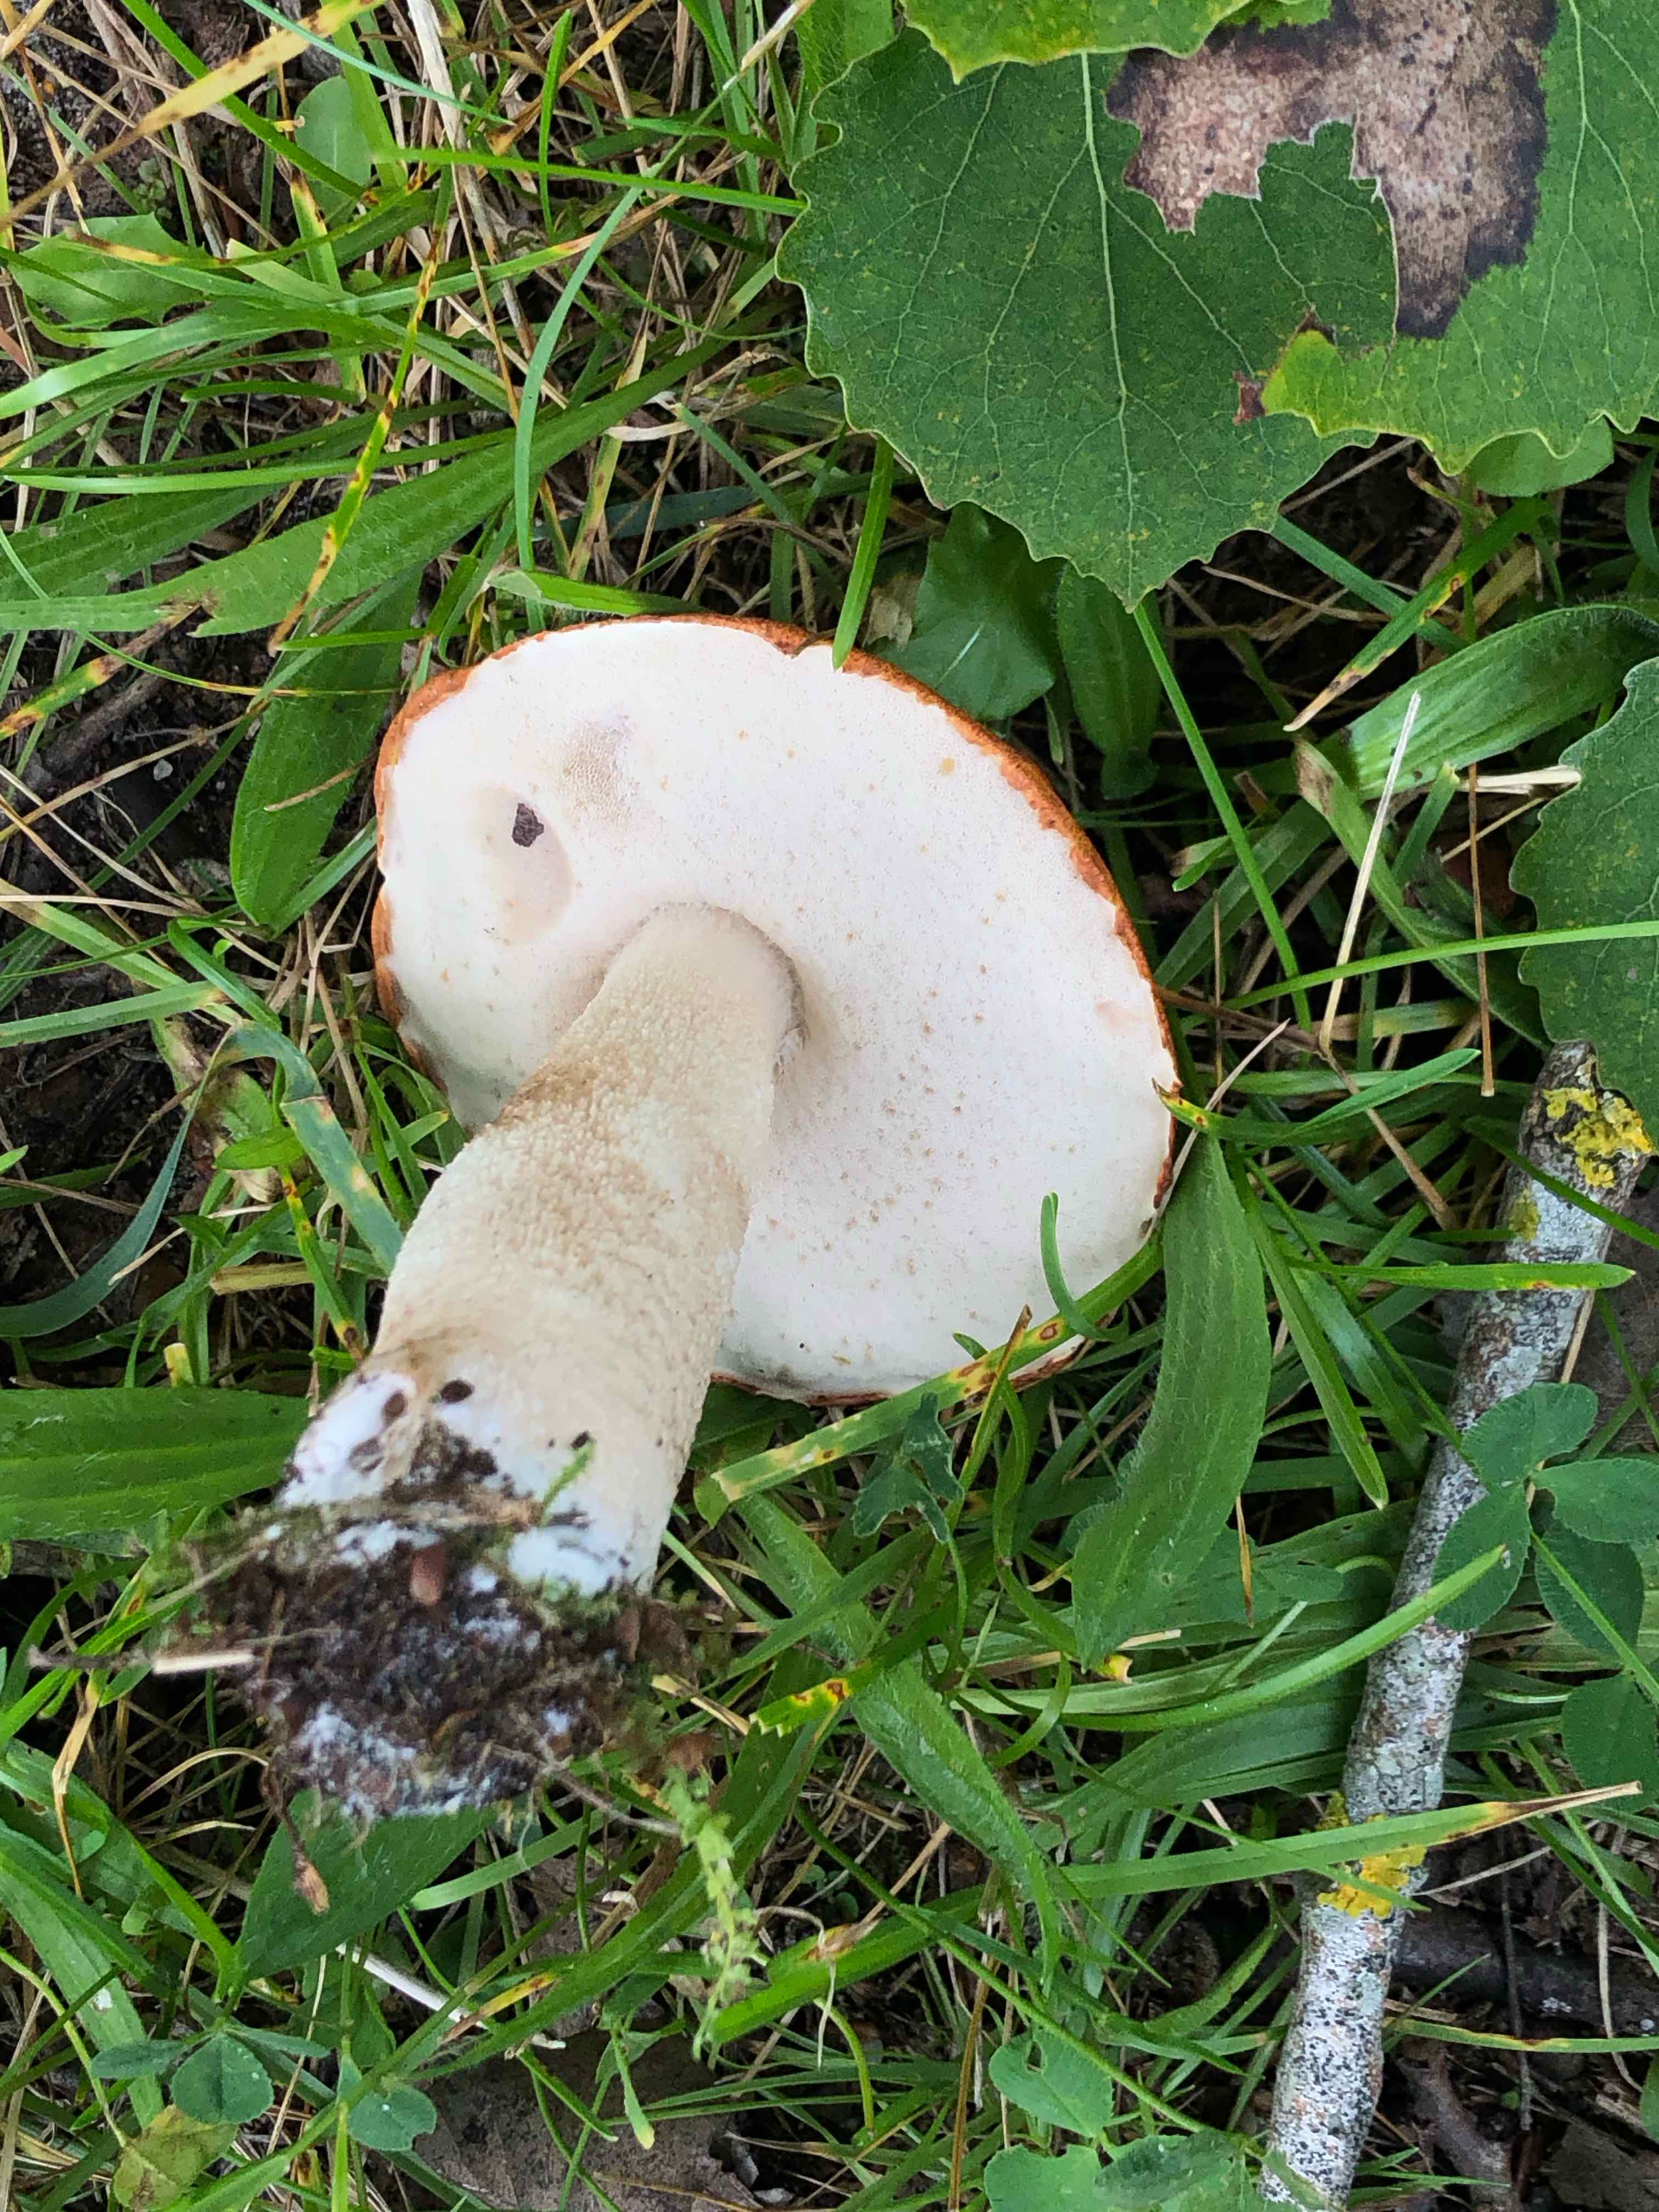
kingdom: Fungi
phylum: Basidiomycota
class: Agaricomycetes
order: Boletales
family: Boletaceae
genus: Leccinum
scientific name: Leccinum albostipitatum
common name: aspe-skælrørhat
